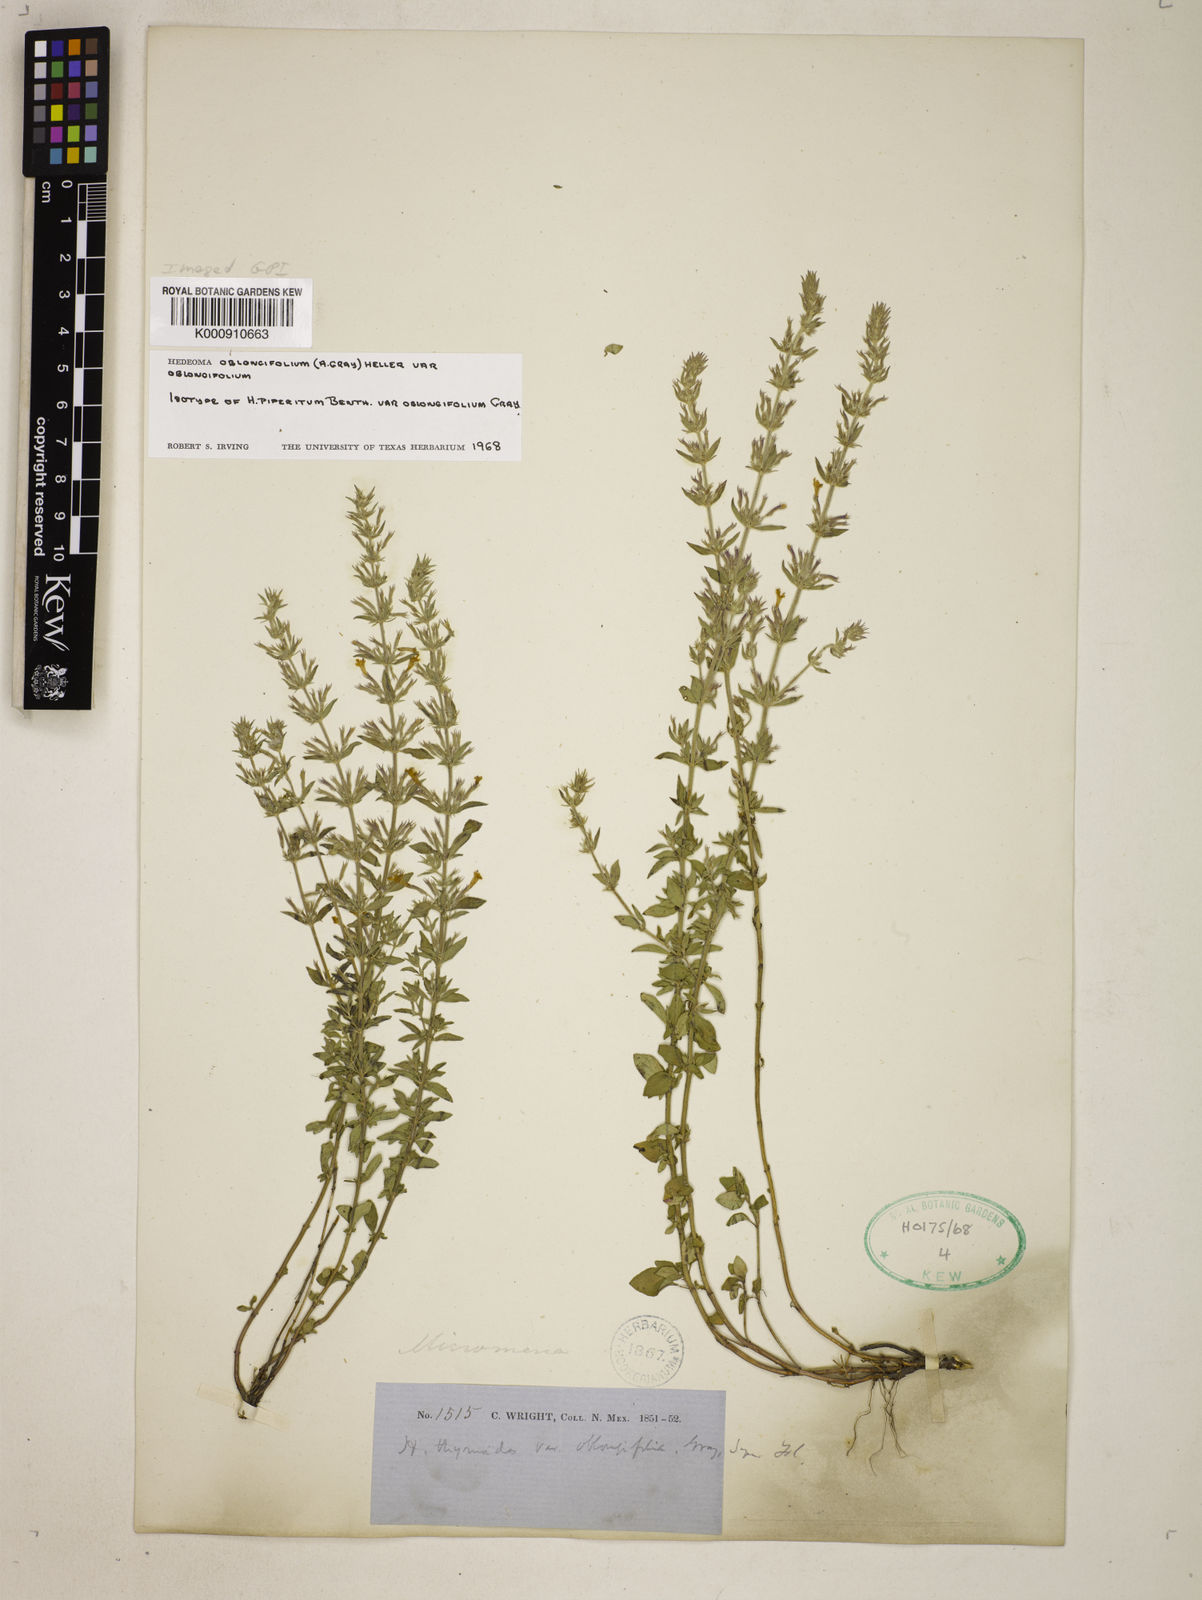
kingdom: Plantae
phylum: Tracheophyta
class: Magnoliopsida
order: Lamiales
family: Lamiaceae
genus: Hedeoma
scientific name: Hedeoma oblongifolia
